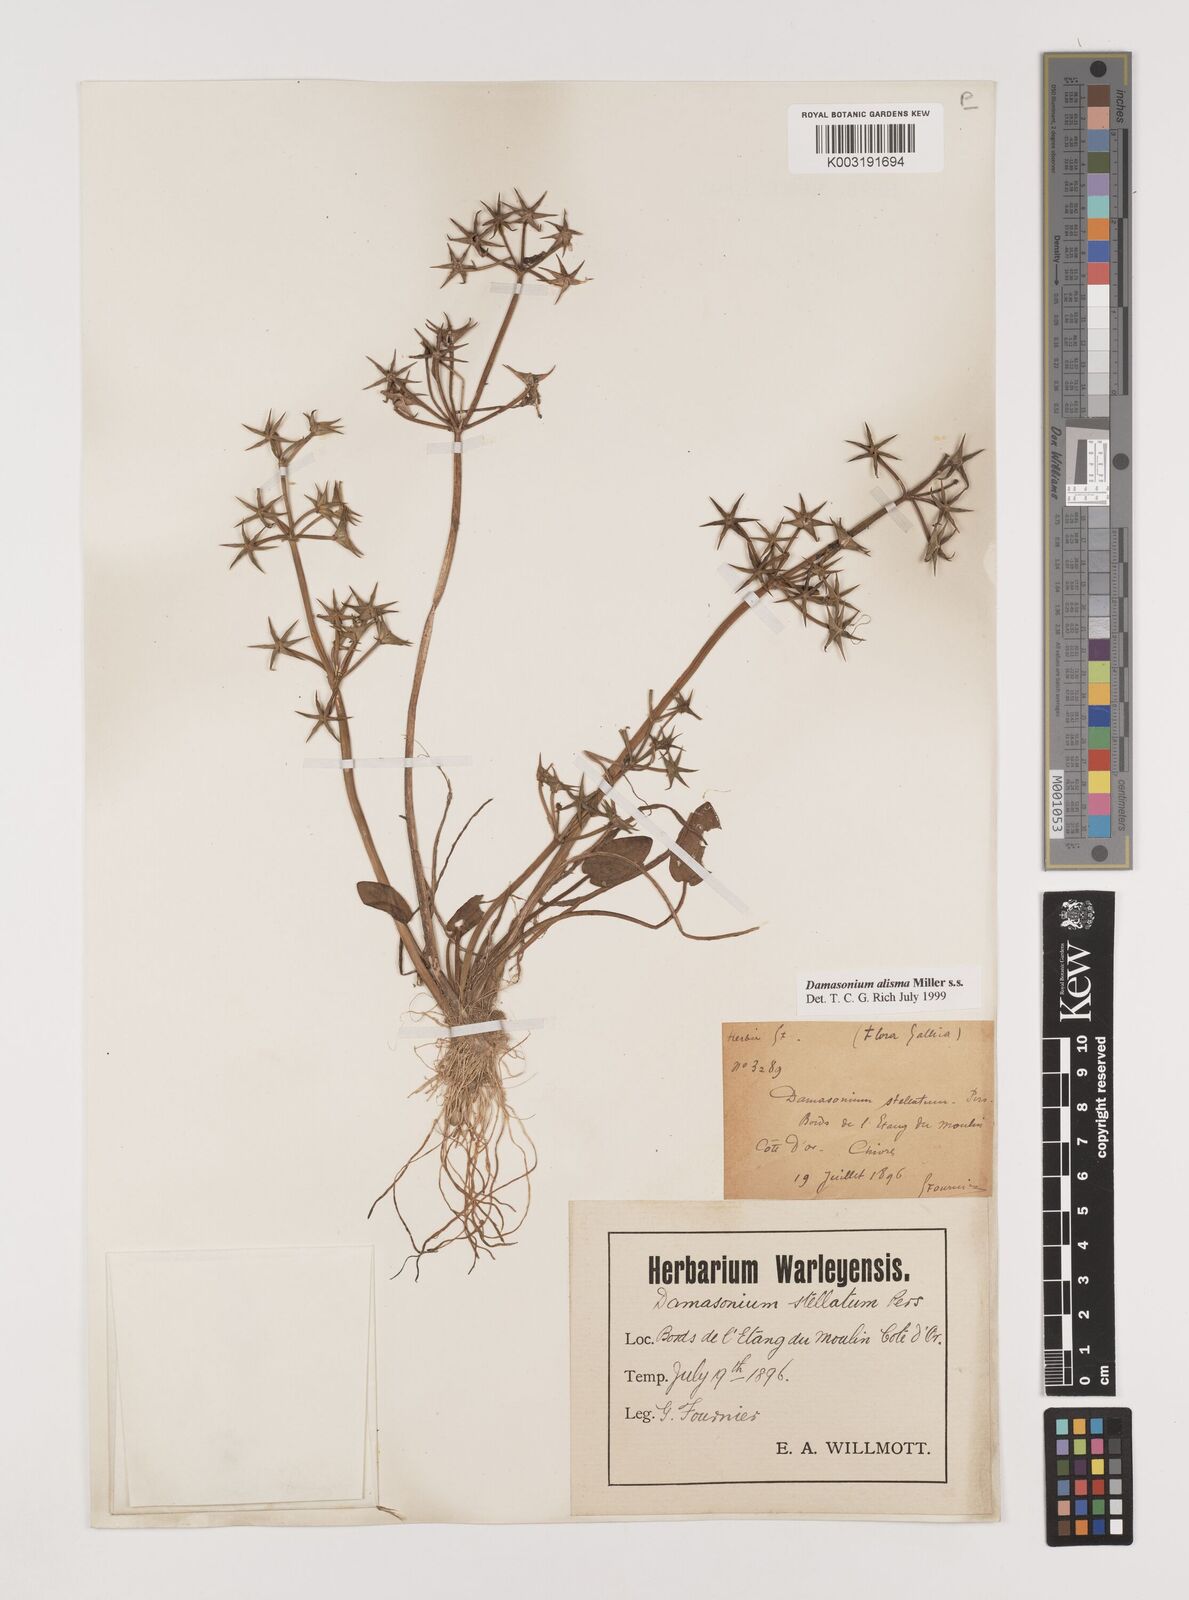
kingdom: Plantae
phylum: Tracheophyta
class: Liliopsida
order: Alismatales
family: Alismataceae
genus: Damasonium
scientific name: Damasonium alisma
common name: Starfruit
